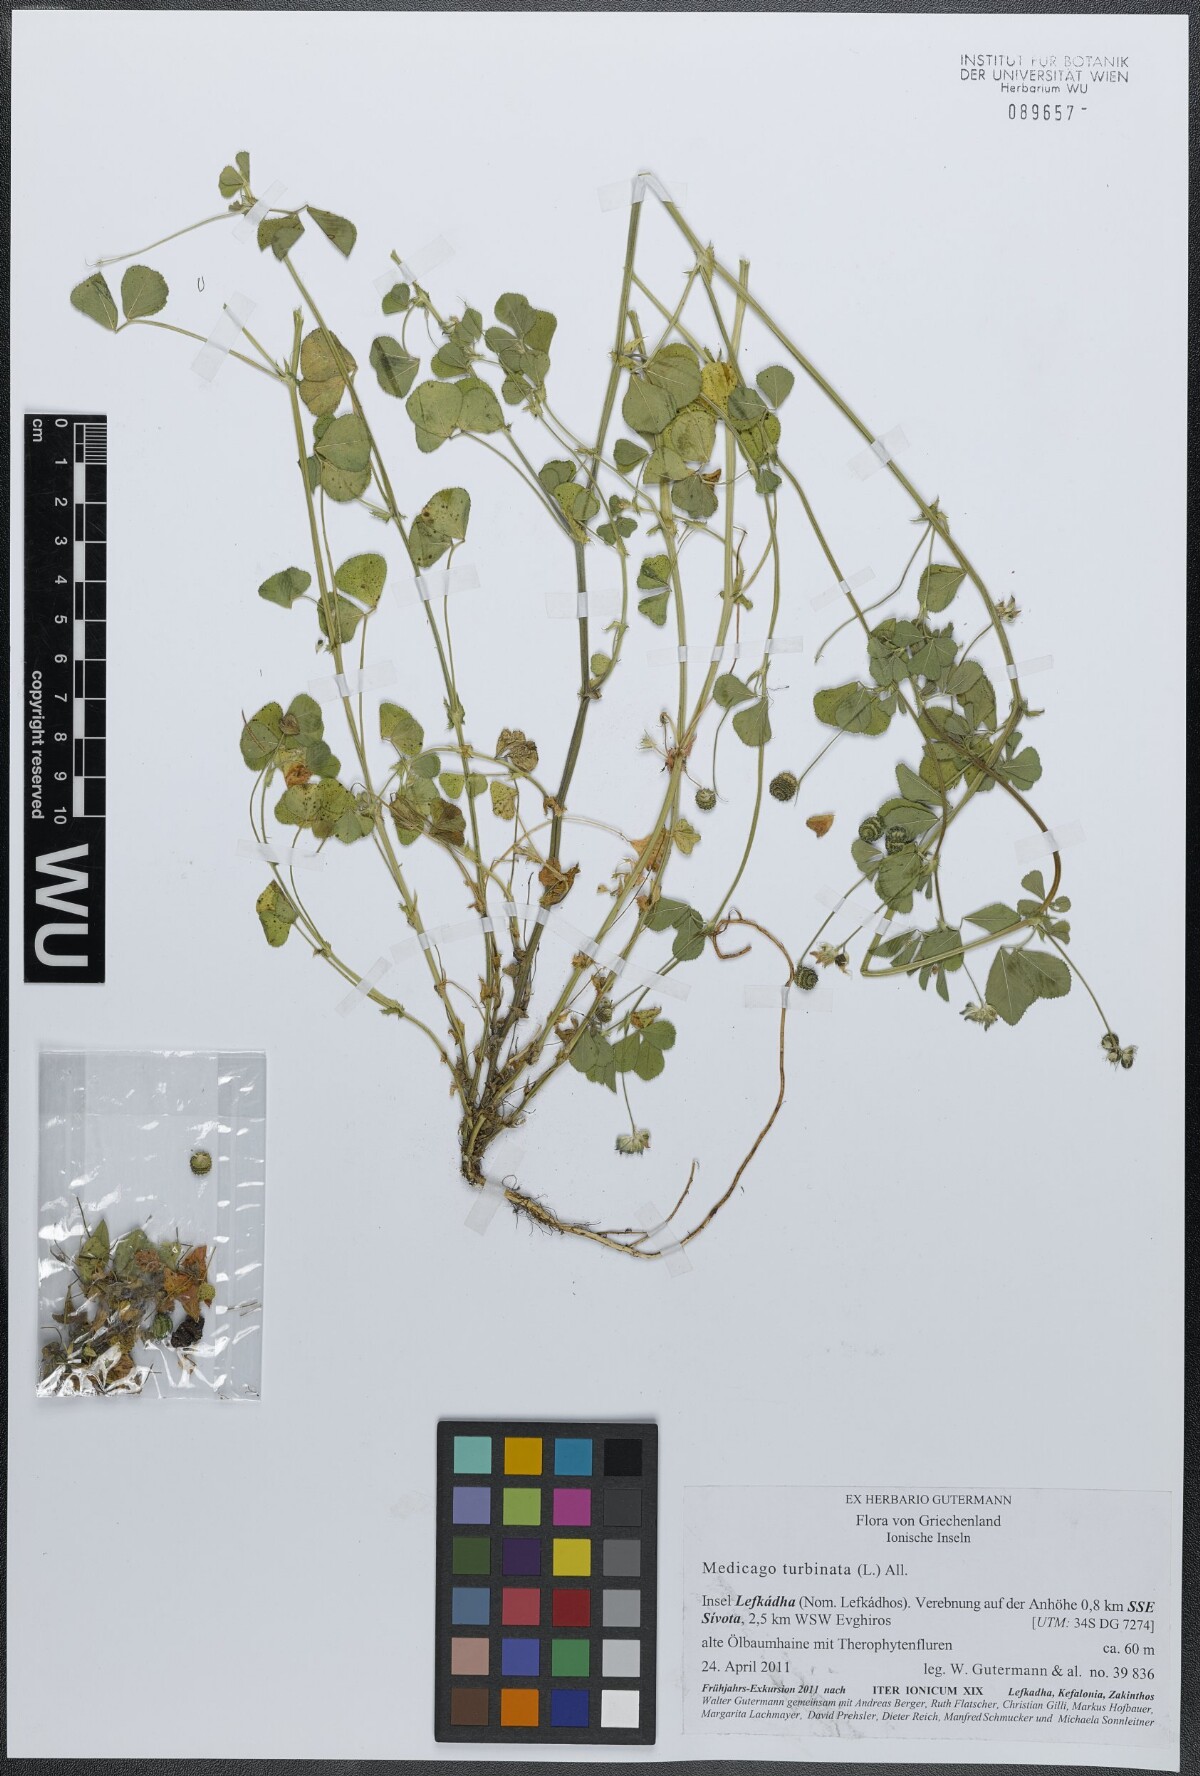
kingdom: Plantae
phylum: Tracheophyta
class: Magnoliopsida
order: Fabales
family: Fabaceae
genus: Medicago
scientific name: Medicago turbinata
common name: Southern medick
